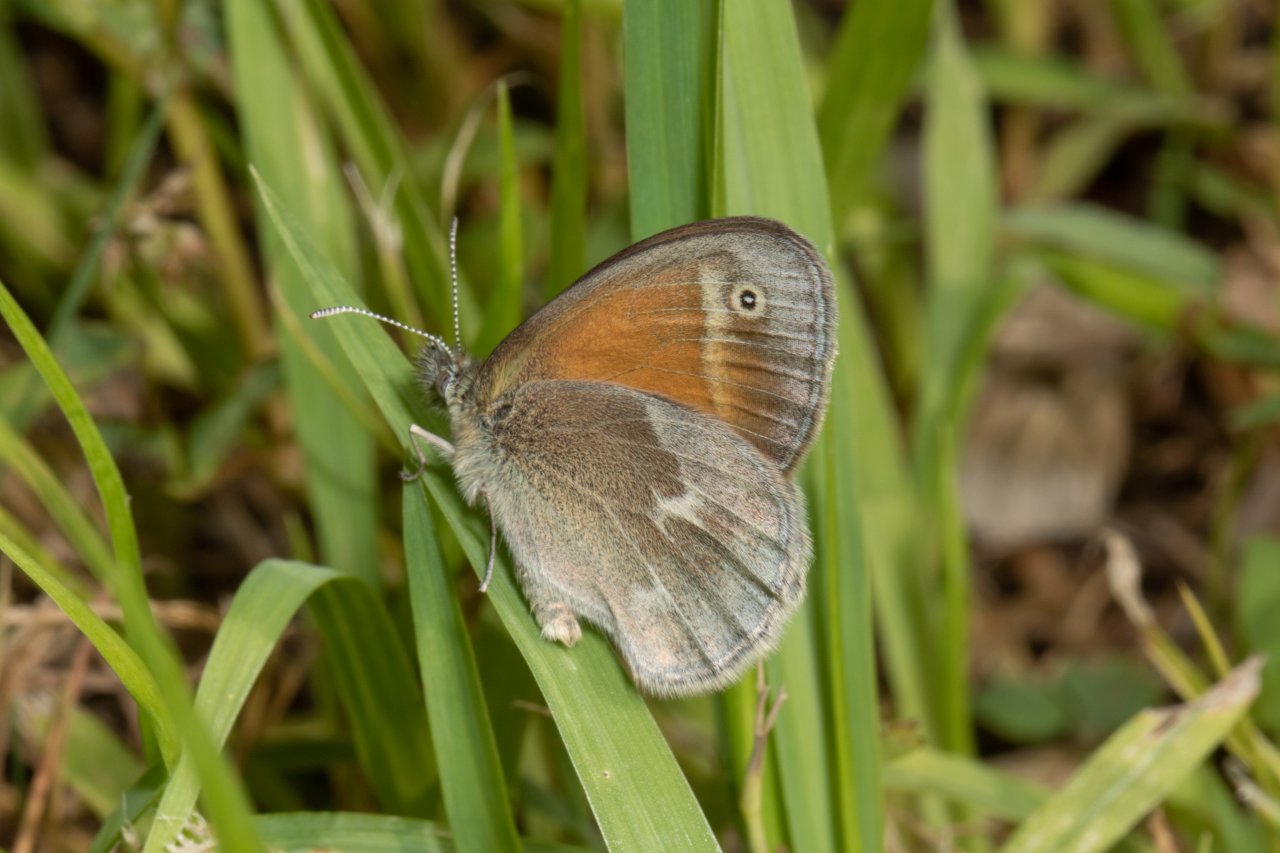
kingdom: Animalia
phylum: Arthropoda
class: Insecta
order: Lepidoptera
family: Nymphalidae
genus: Coenonympha
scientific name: Coenonympha tullia
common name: Large Heath
